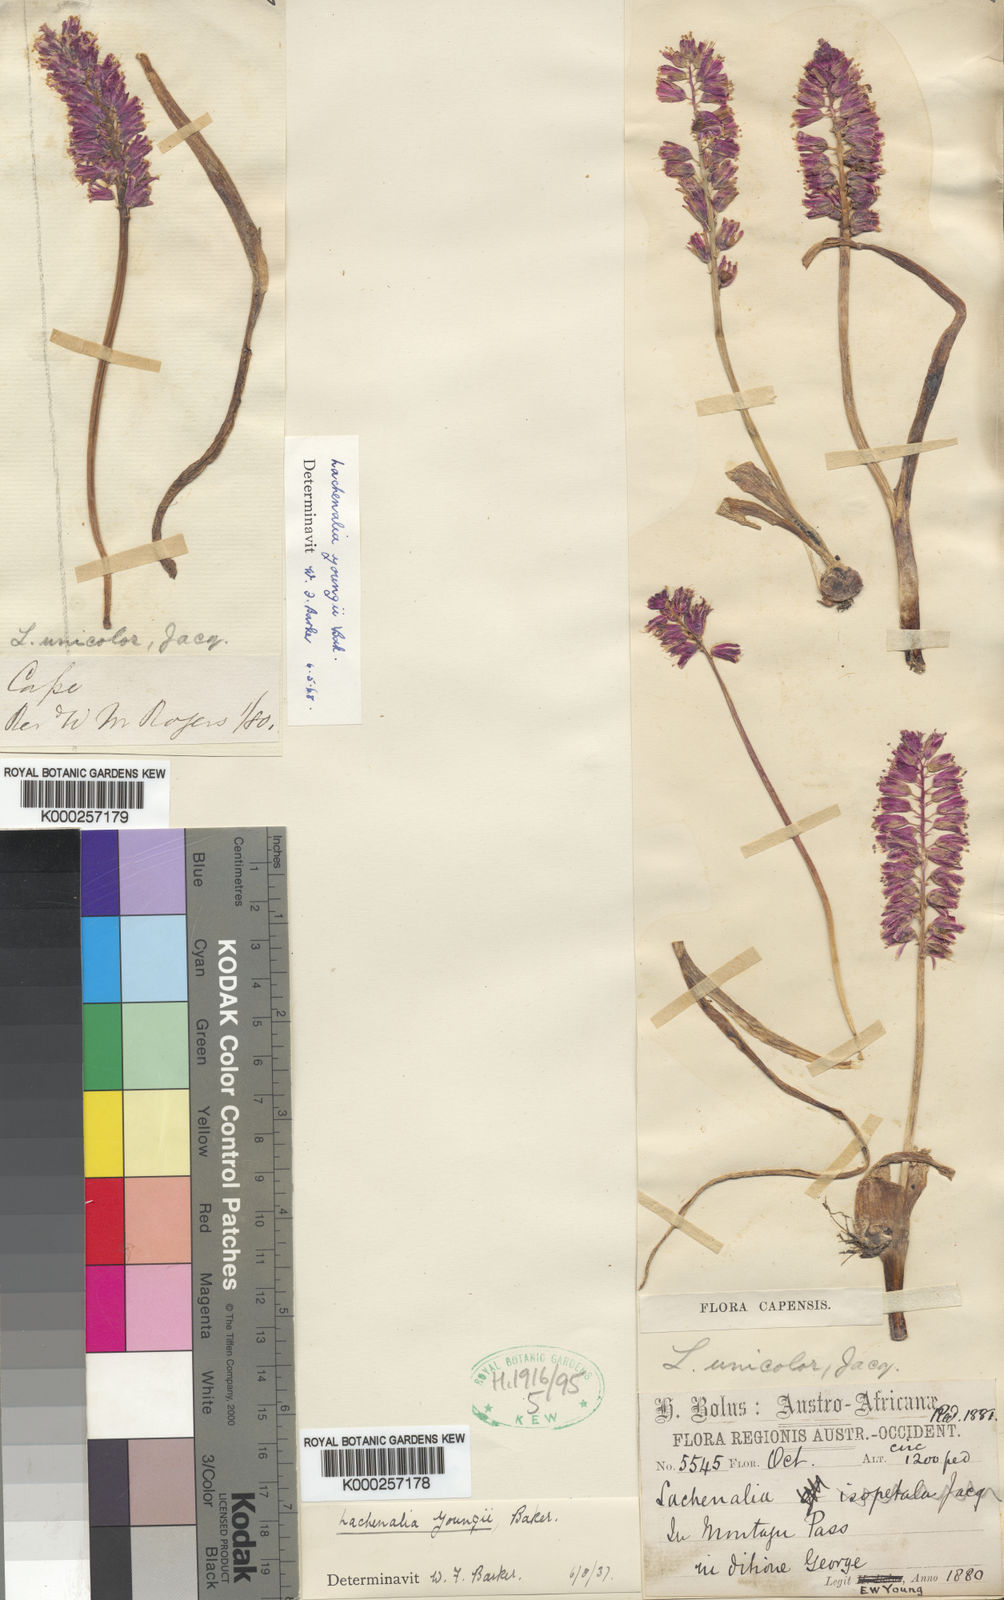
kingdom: Plantae
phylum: Tracheophyta
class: Liliopsida
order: Asparagales
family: Asparagaceae
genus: Lachenalia
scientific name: Lachenalia youngii
